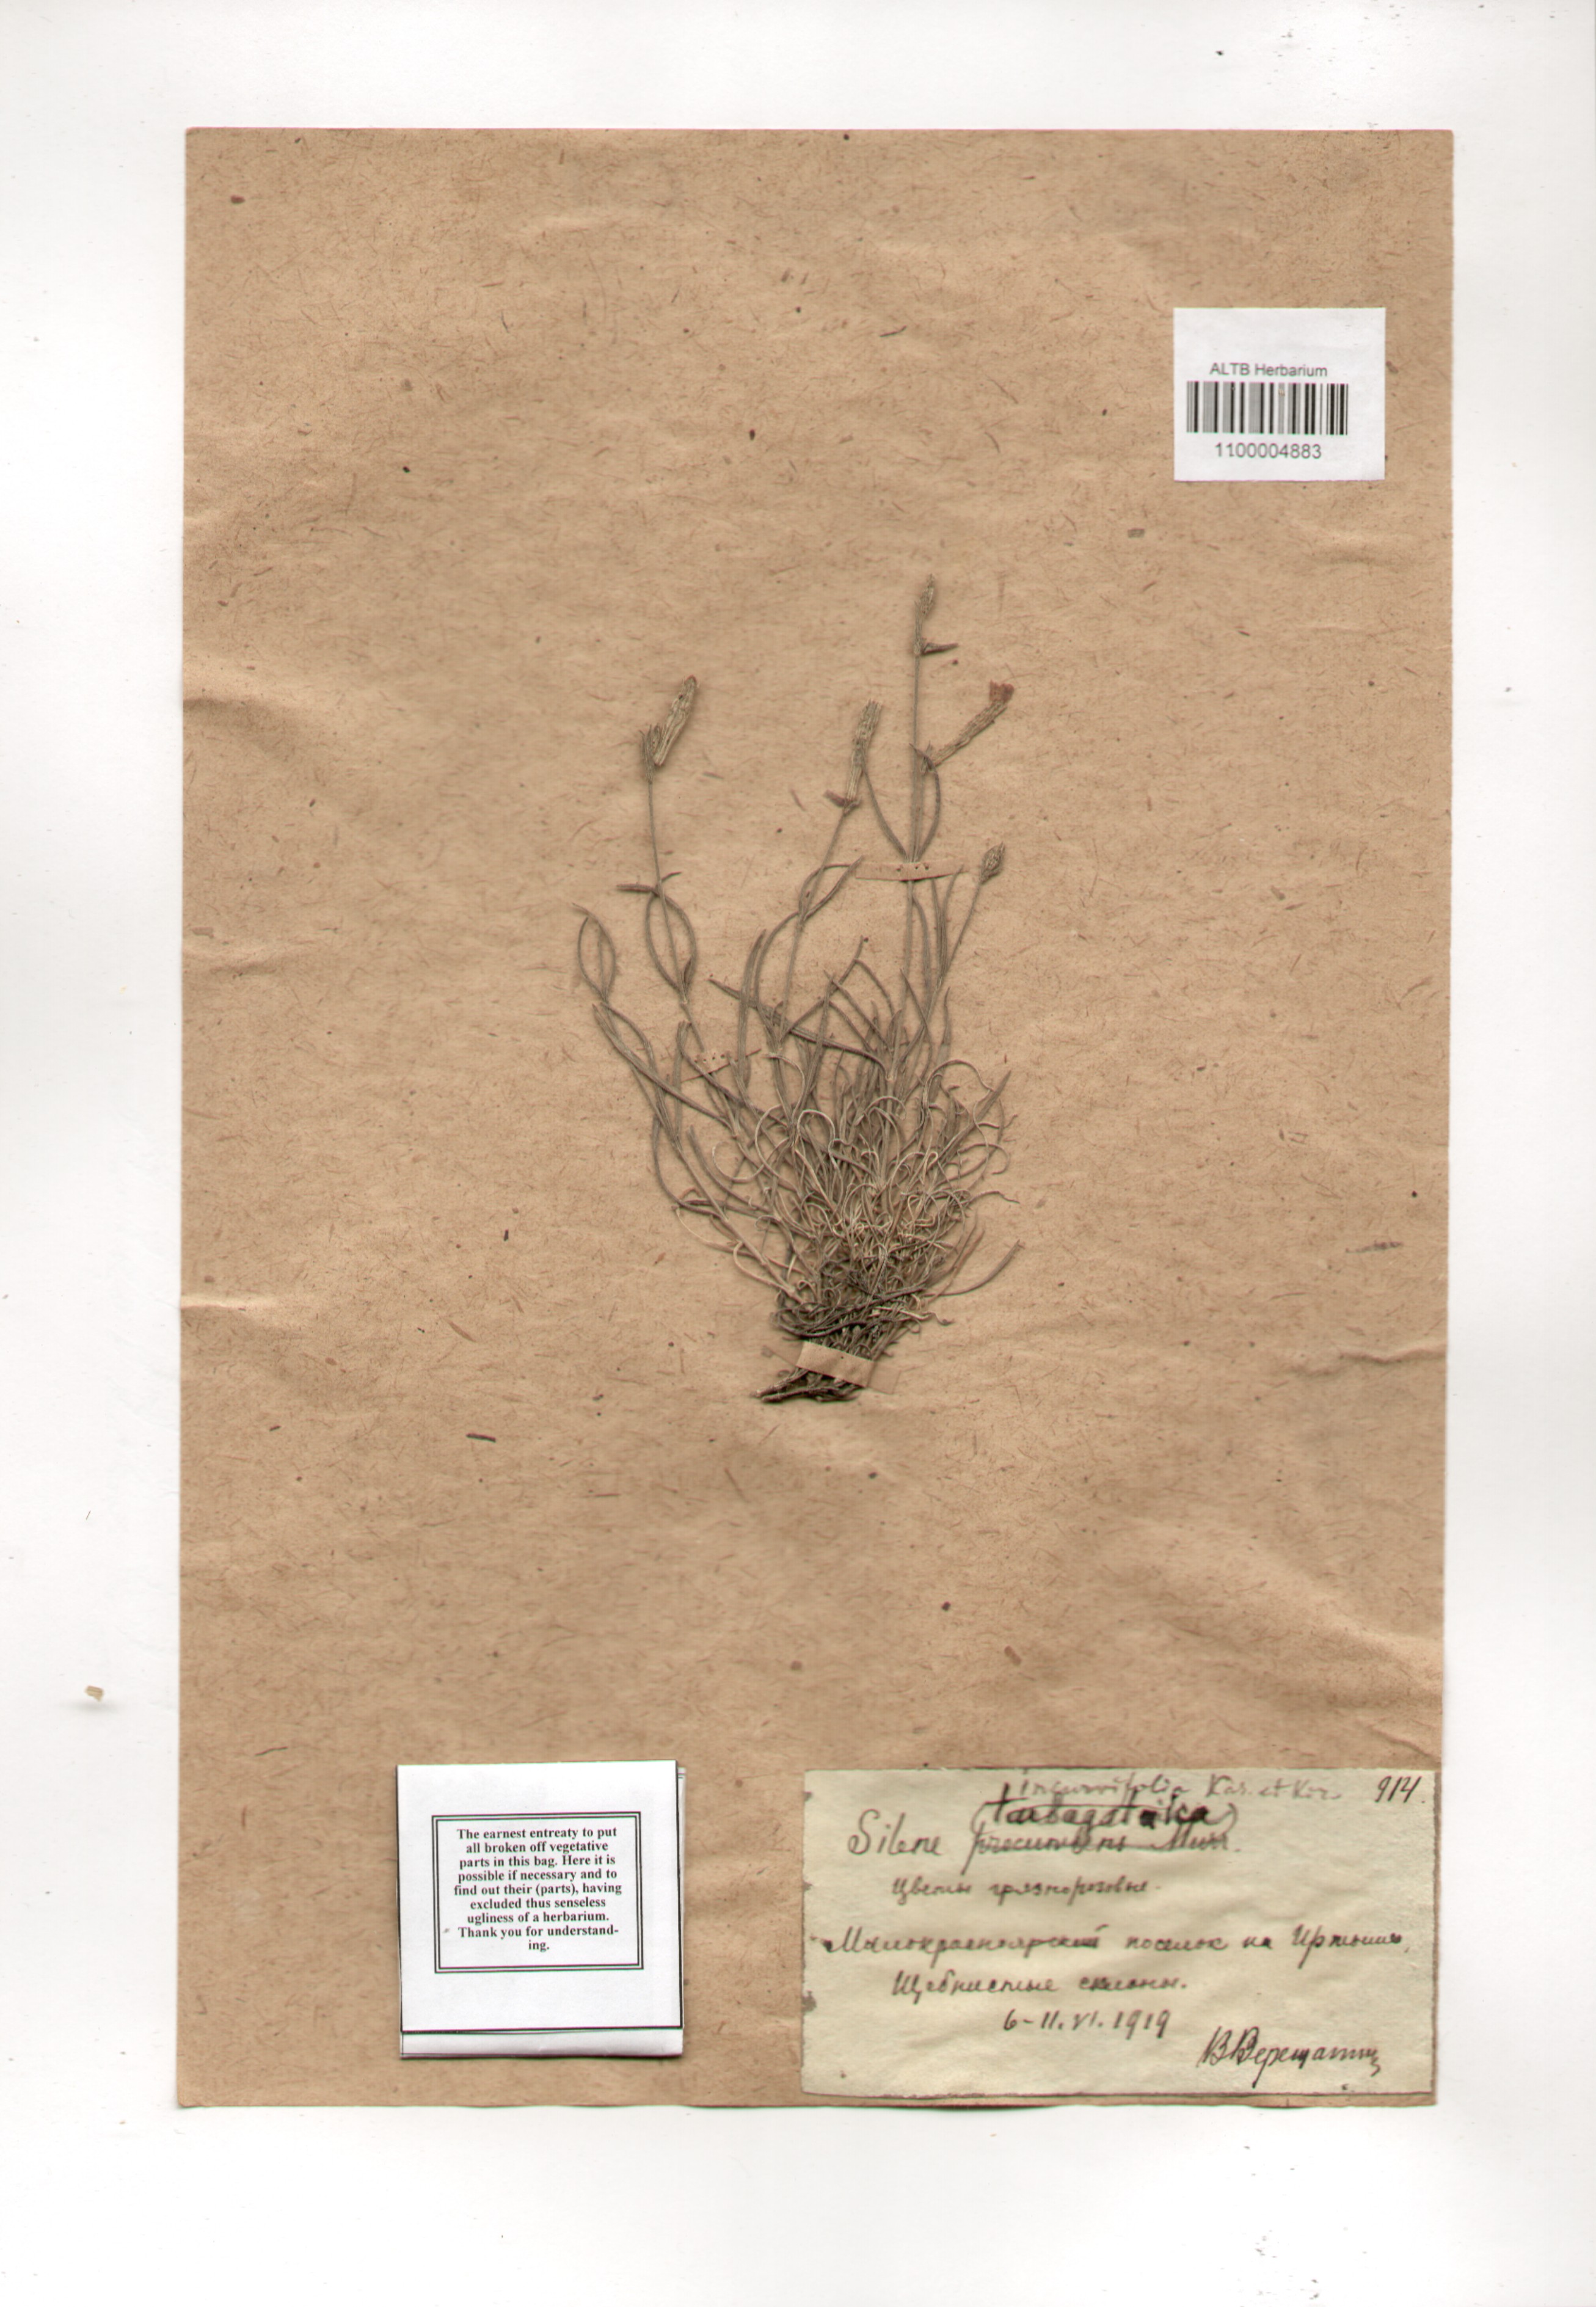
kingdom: Plantae
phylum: Tracheophyta
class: Magnoliopsida
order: Caryophyllales
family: Caryophyllaceae
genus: Silene
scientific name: Silene incurvifolia
